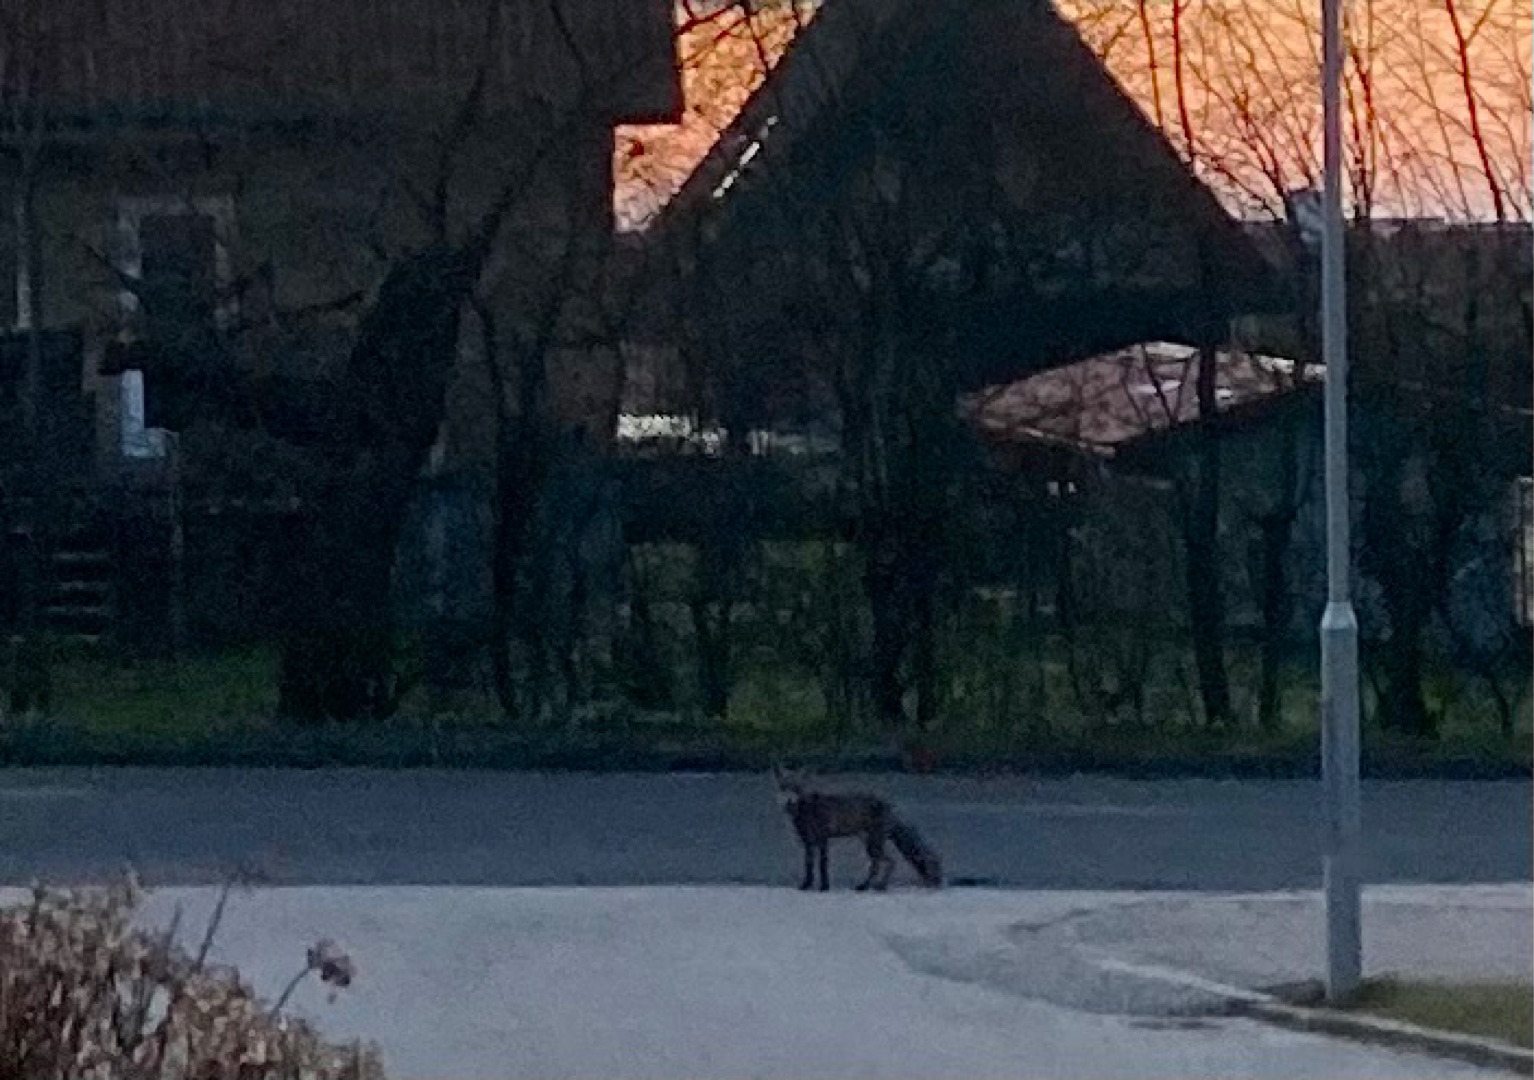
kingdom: Animalia
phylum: Chordata
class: Mammalia
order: Carnivora
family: Canidae
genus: Vulpes
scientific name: Vulpes vulpes
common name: Ræv
